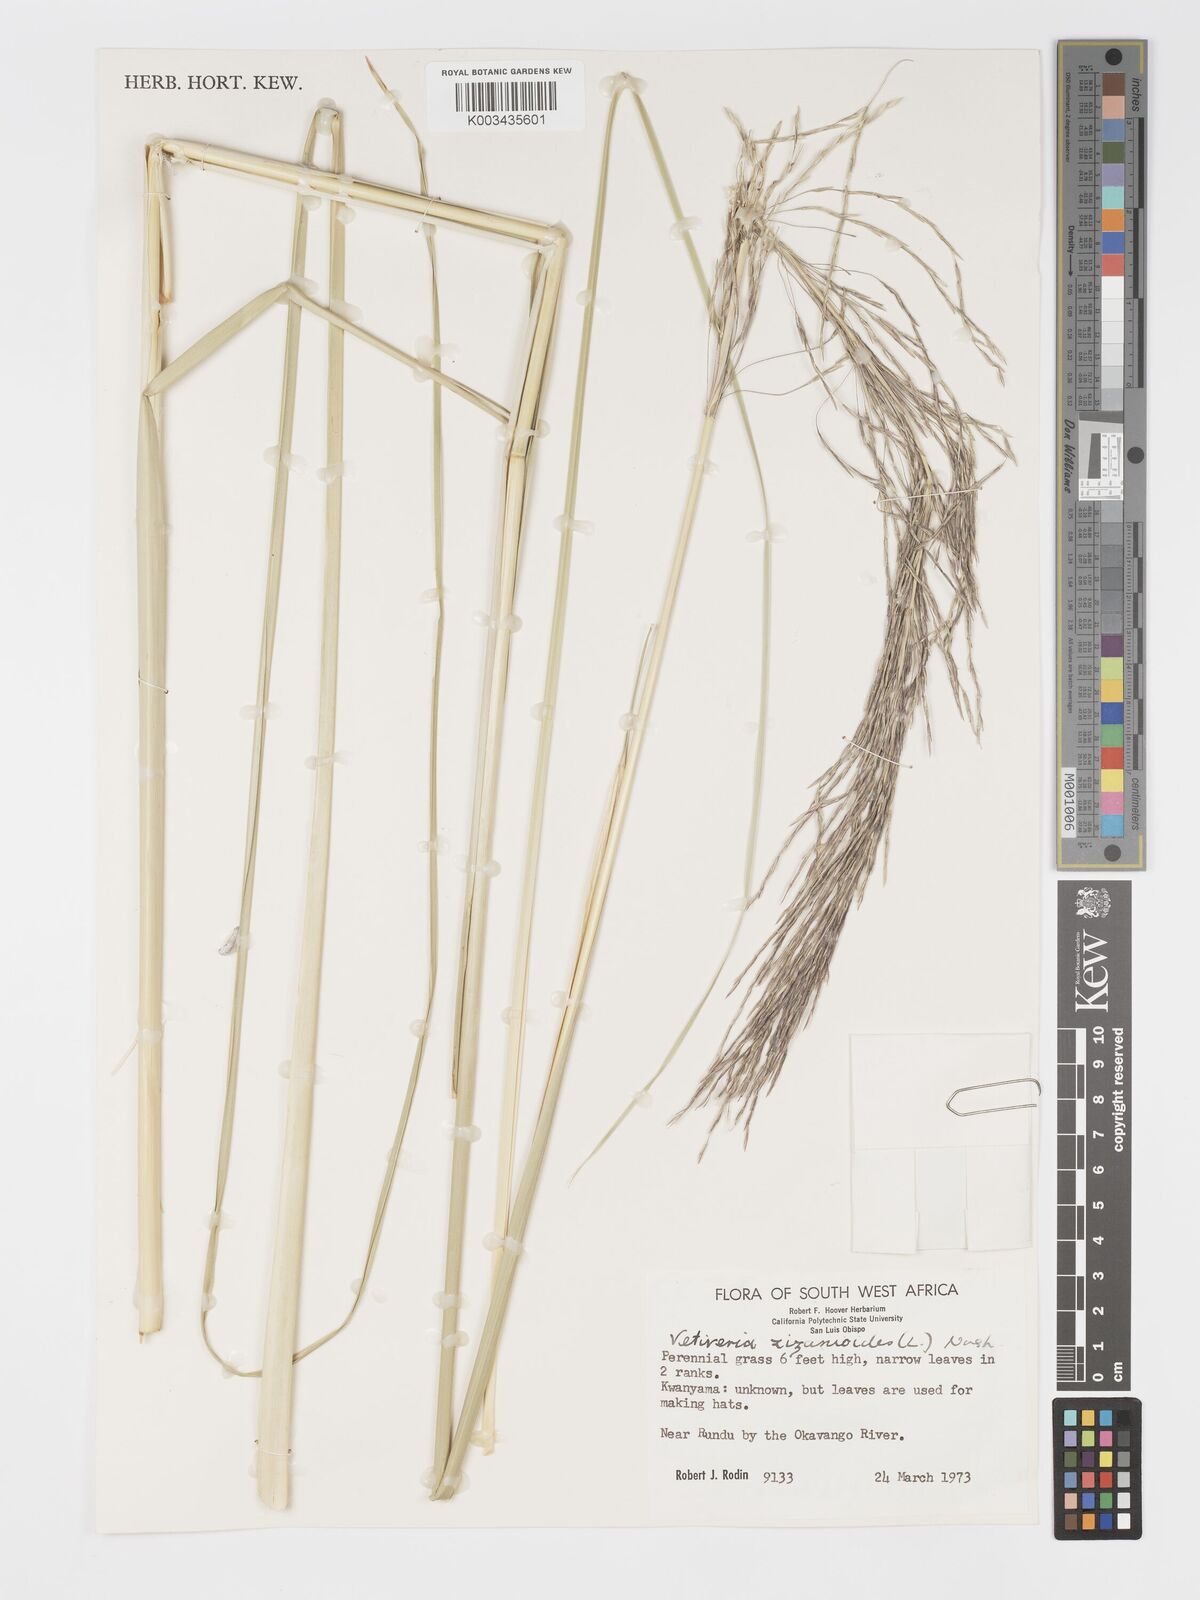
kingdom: Plantae
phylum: Tracheophyta
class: Liliopsida
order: Poales
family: Poaceae
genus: Chrysopogon
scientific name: Chrysopogon nigritanus
